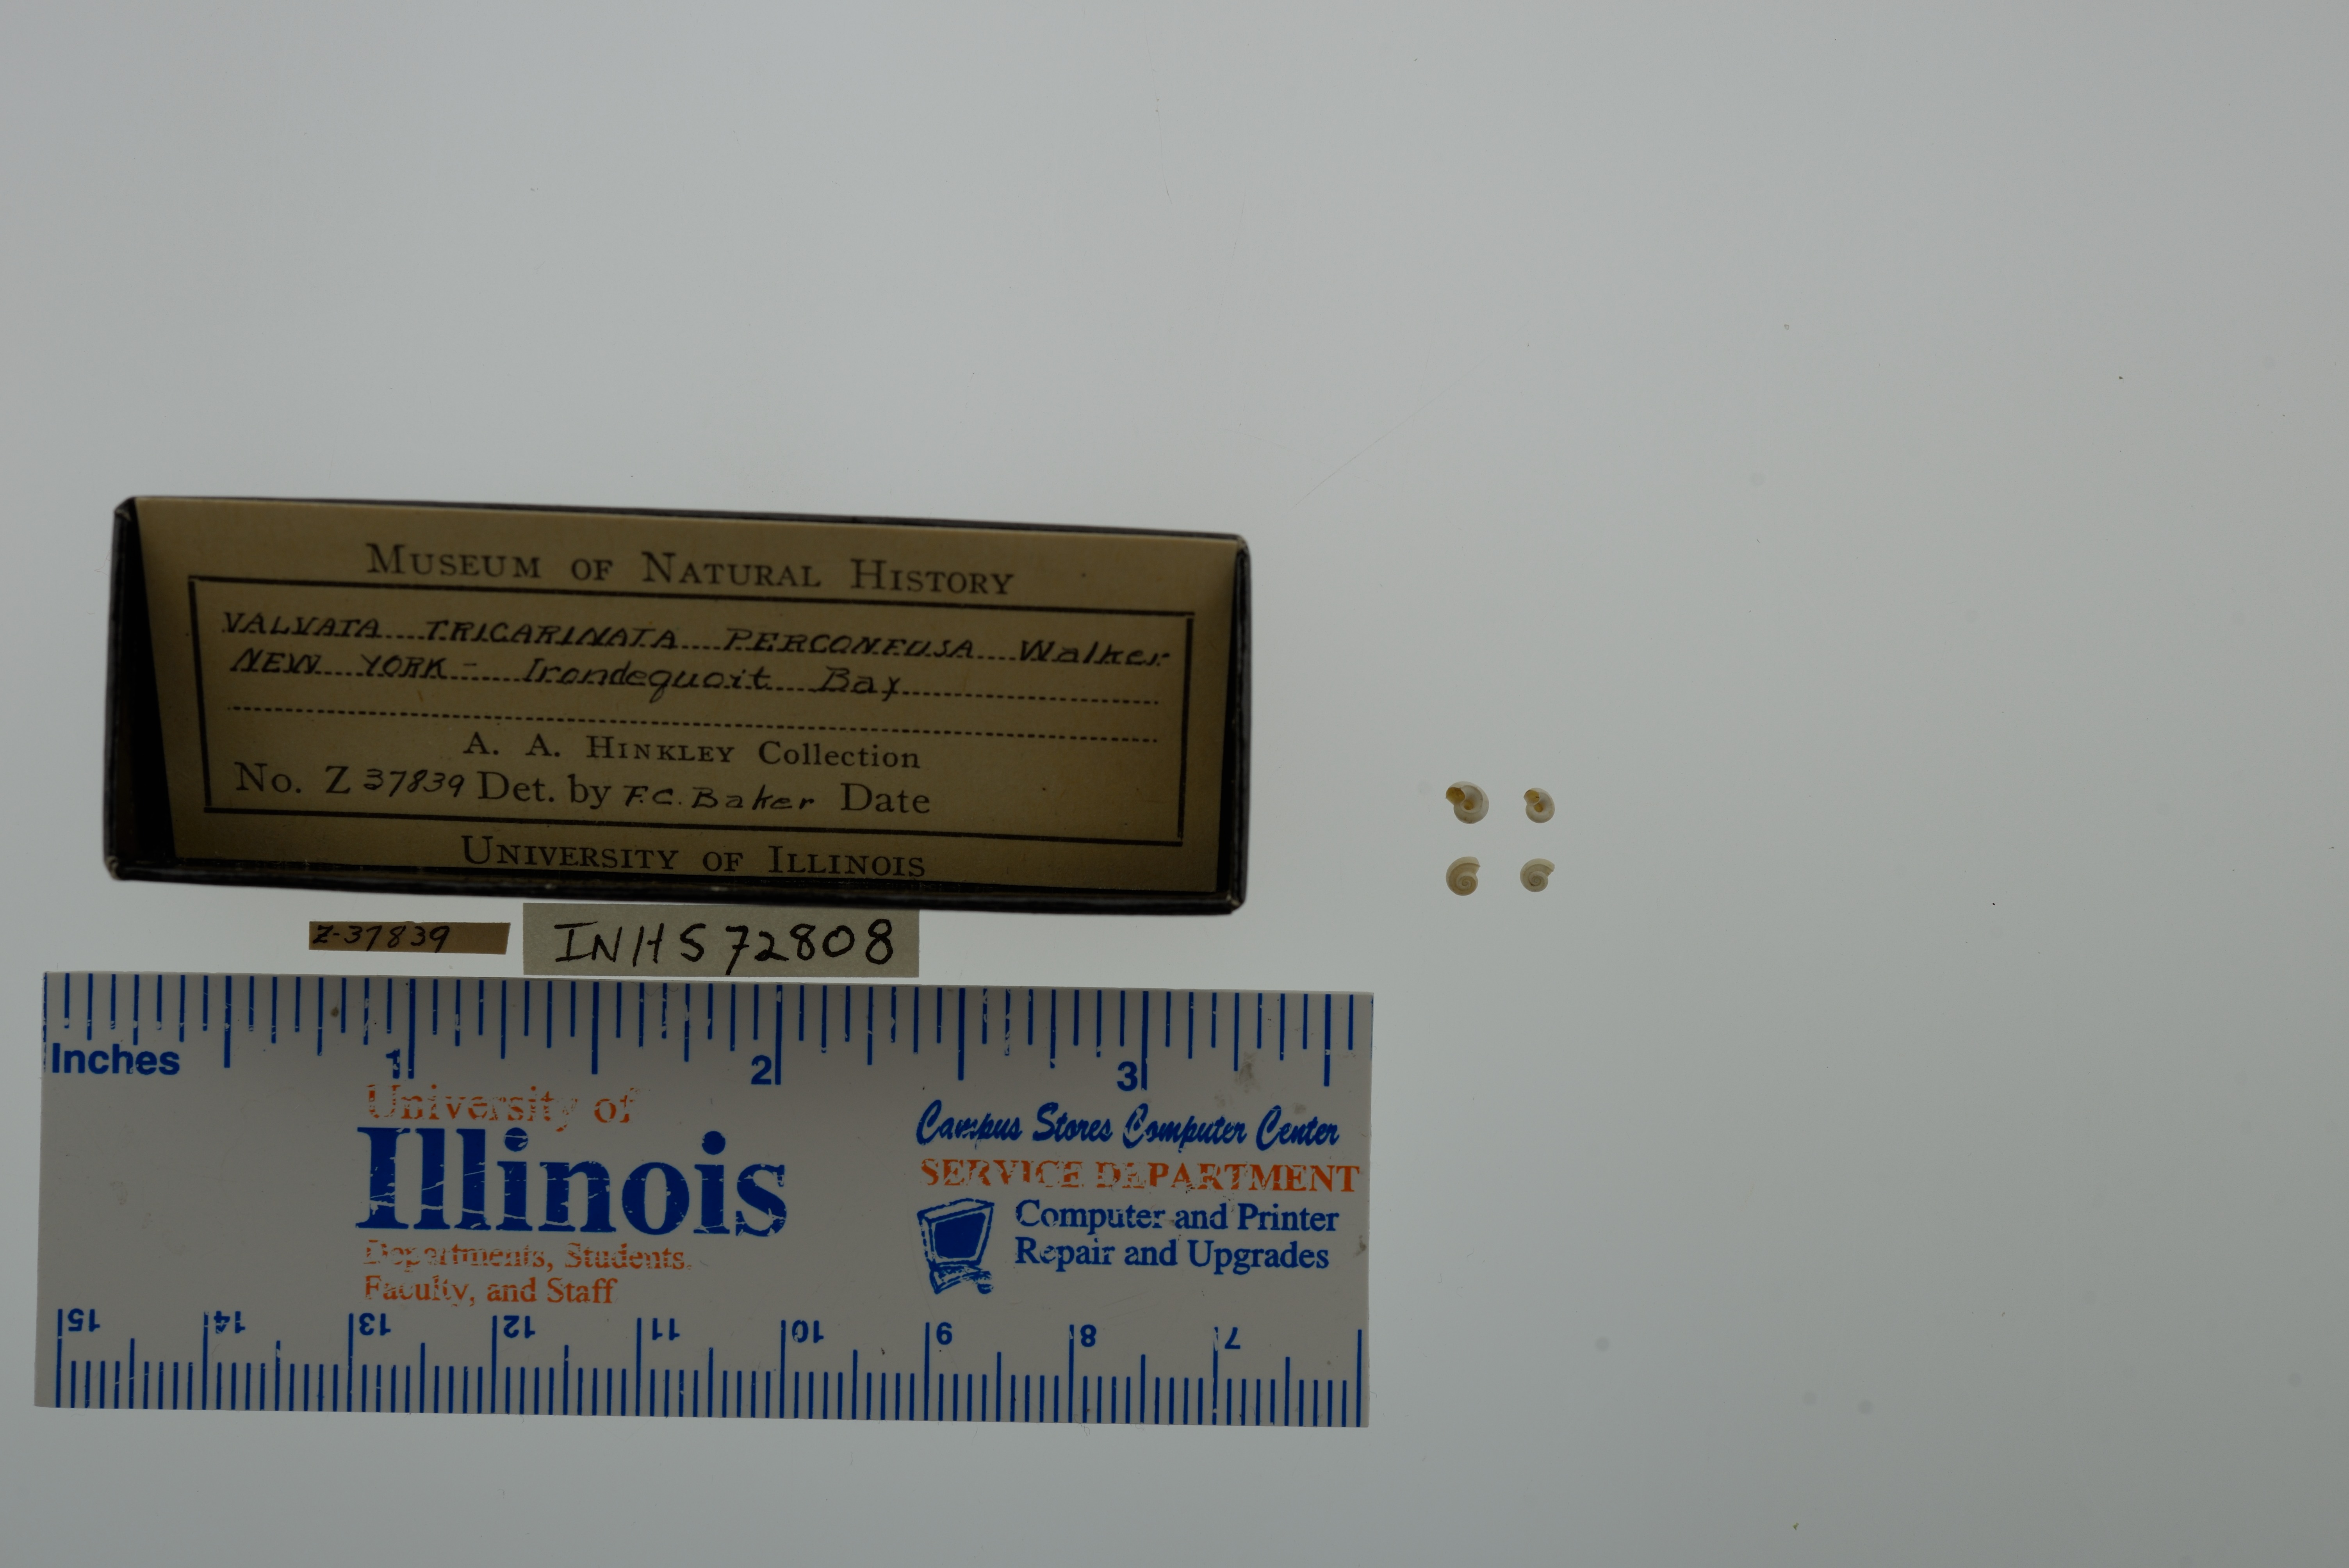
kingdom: Animalia
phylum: Mollusca
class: Gastropoda
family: Valvatidae
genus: Valvata
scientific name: Valvata tricarinata
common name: Three-ridge valvata
